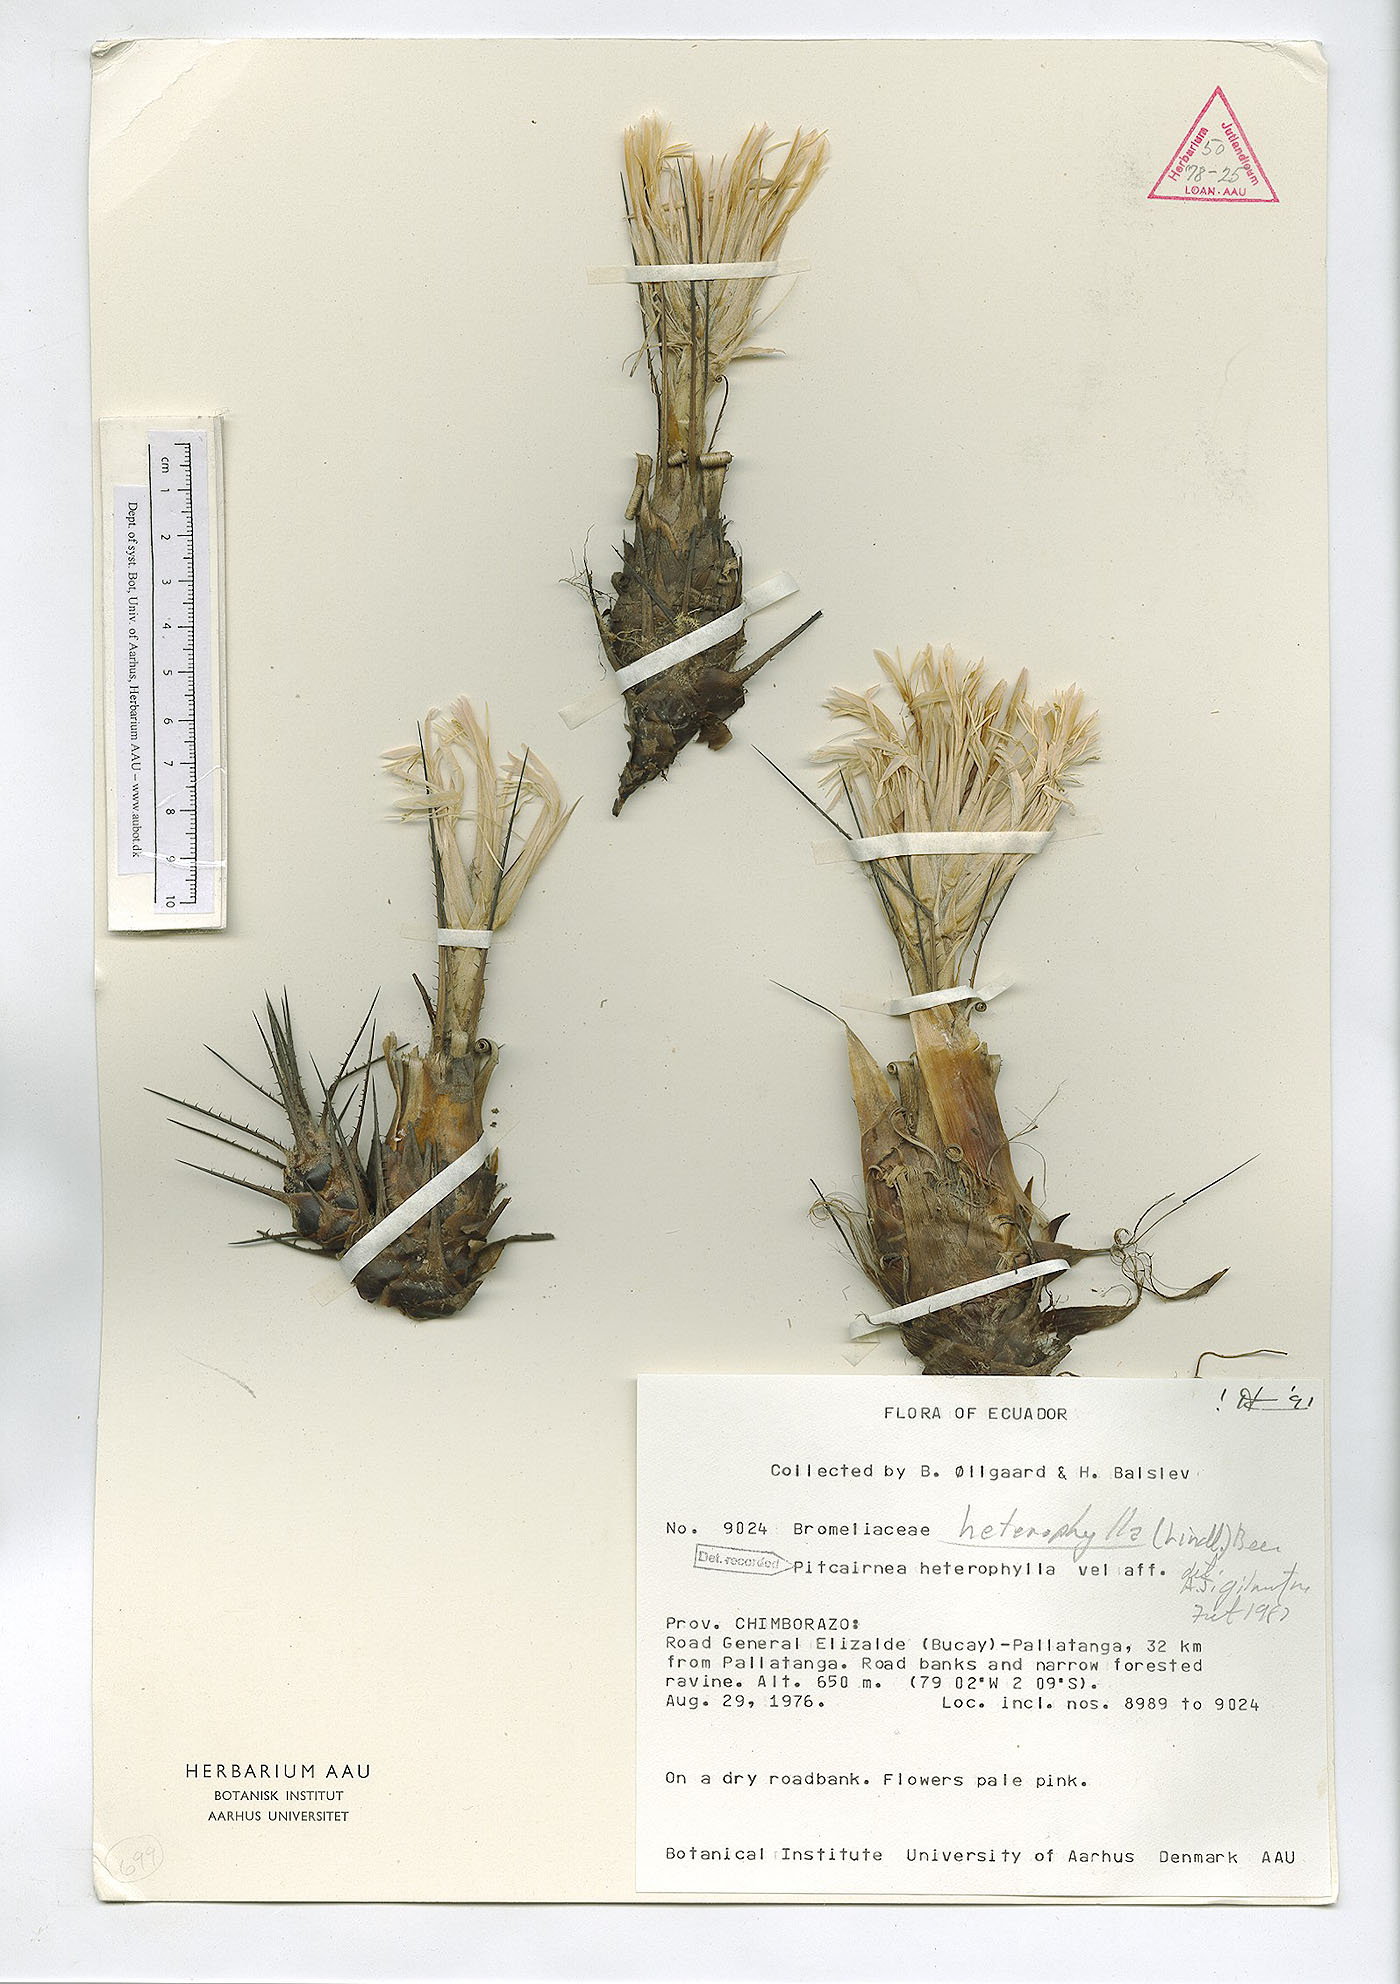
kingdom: Plantae
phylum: Tracheophyta
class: Liliopsida
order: Poales
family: Bromeliaceae
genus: Pitcairnia
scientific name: Pitcairnia heterophylla
